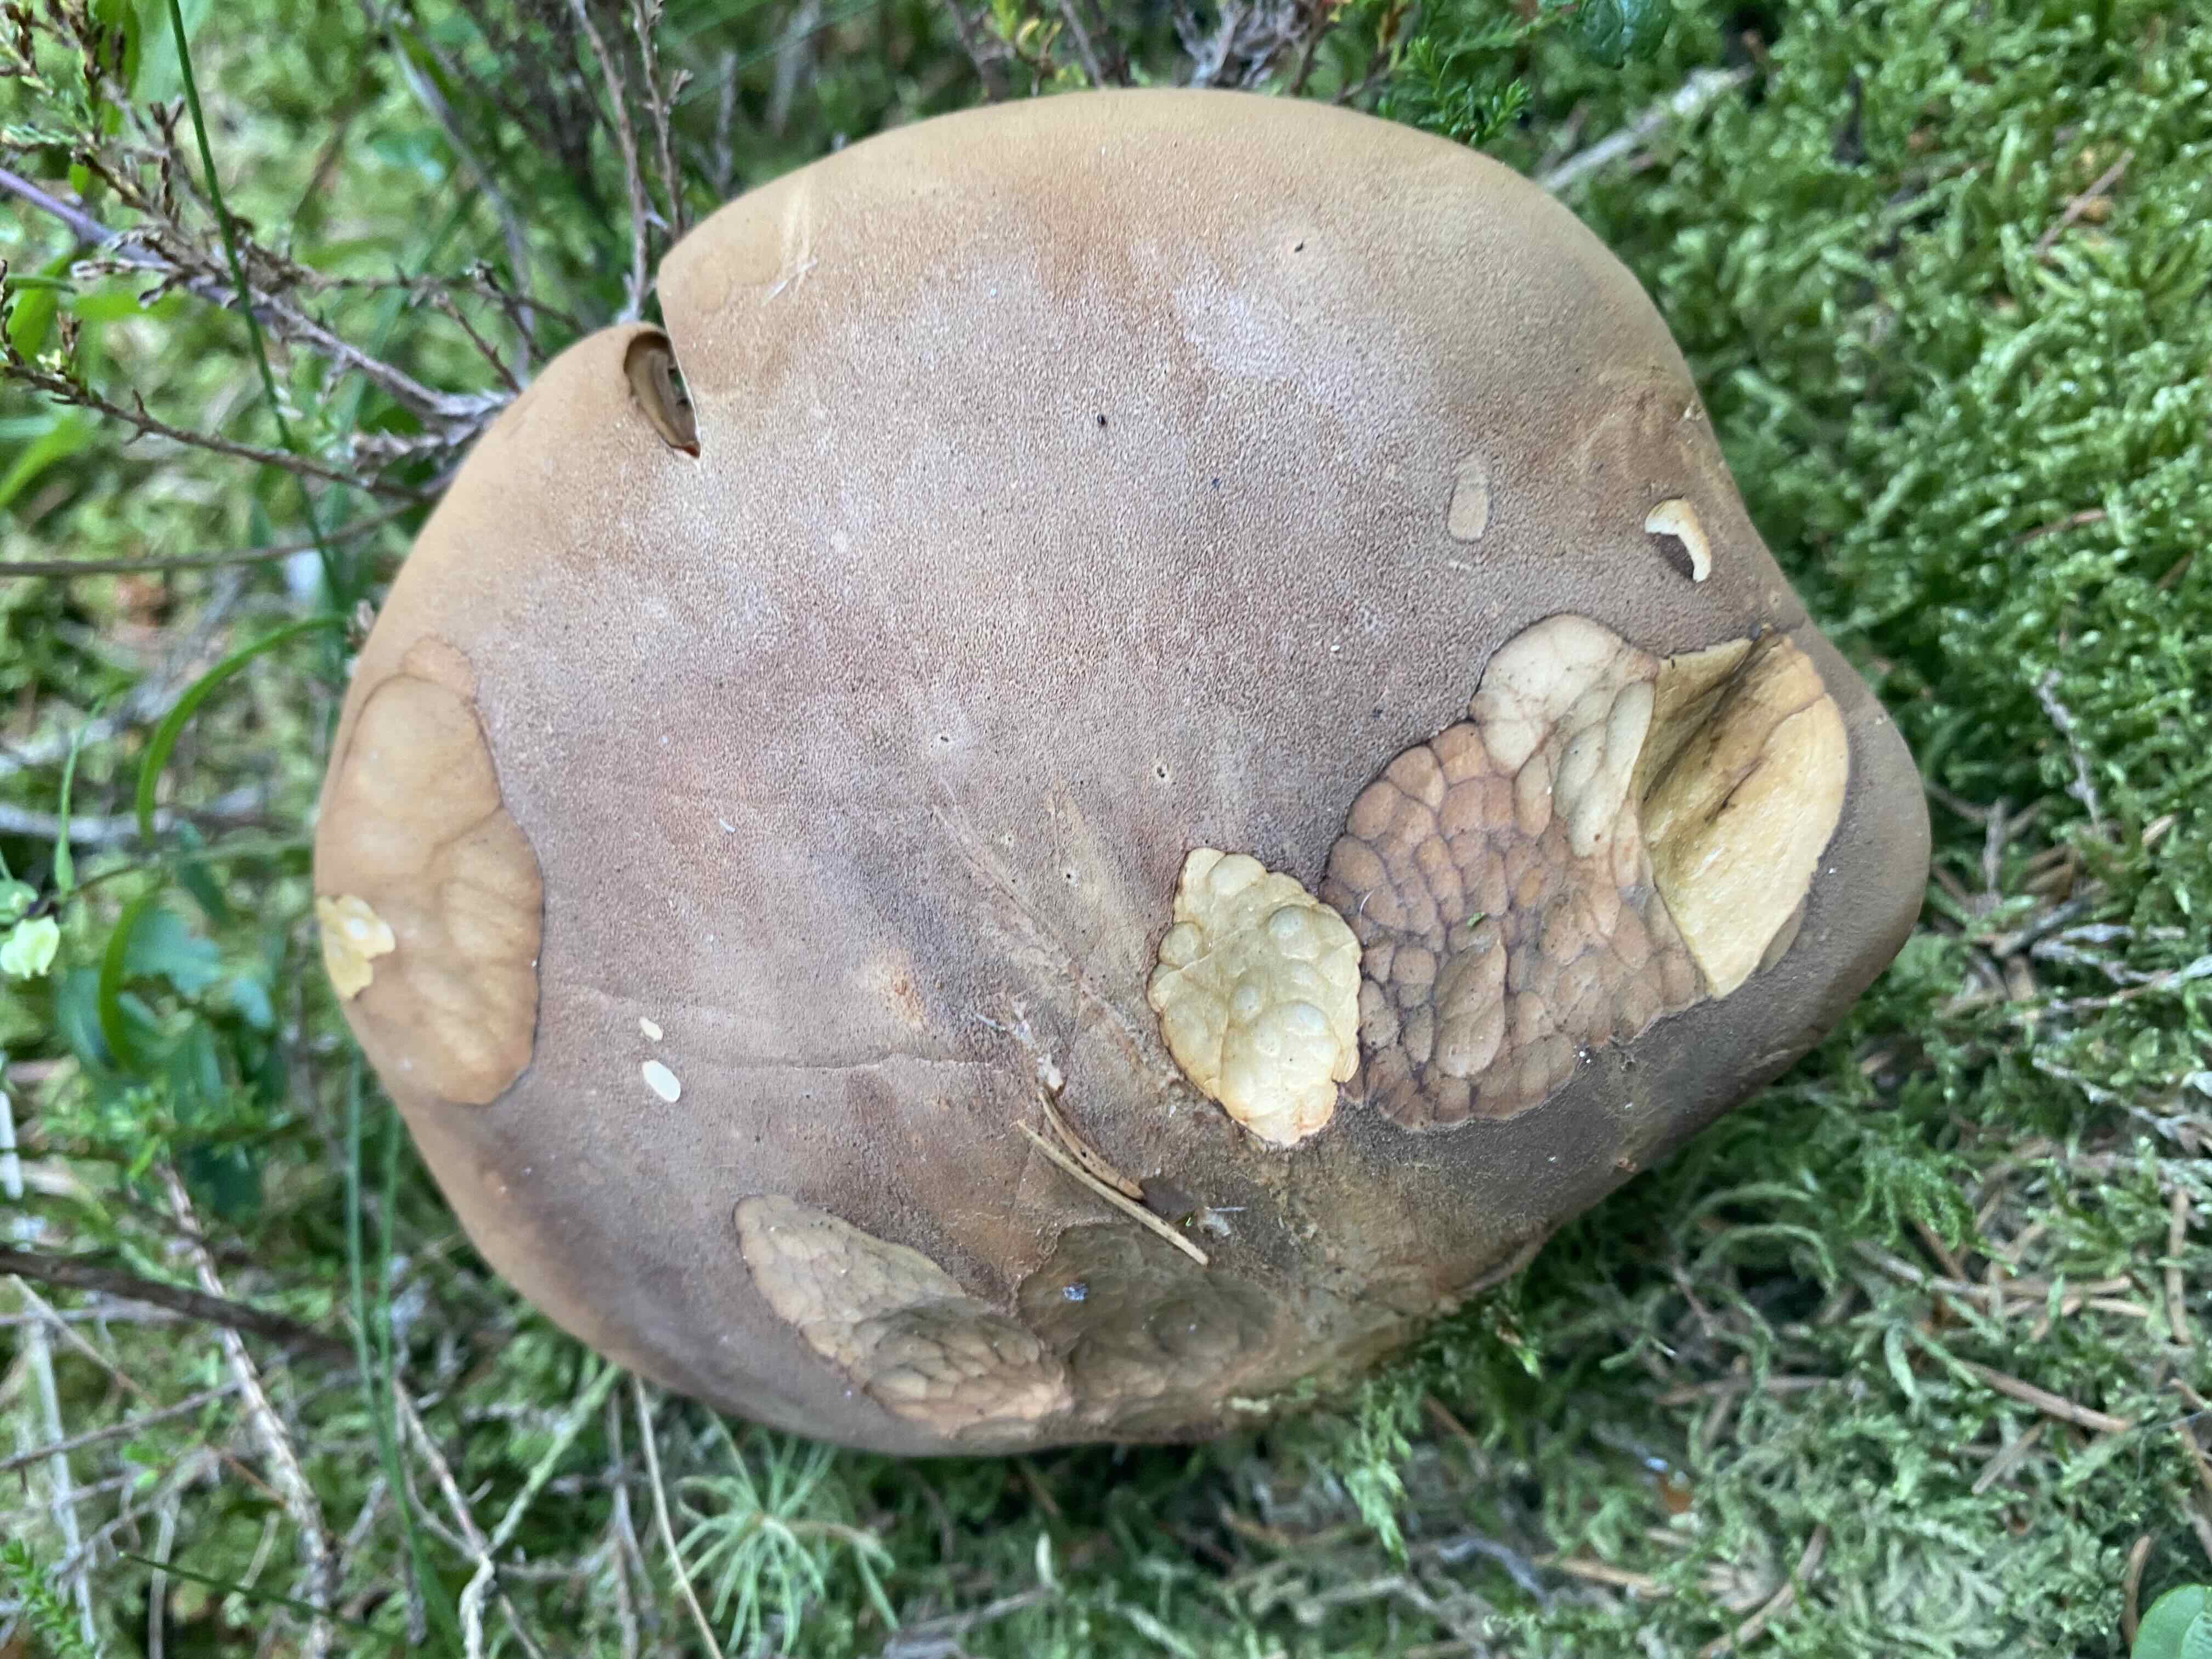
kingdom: Fungi
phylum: Basidiomycota
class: Agaricomycetes
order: Boletales
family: Tapinellaceae
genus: Tapinella
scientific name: Tapinella atrotomentosa
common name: sortfiltet viftesvamp
